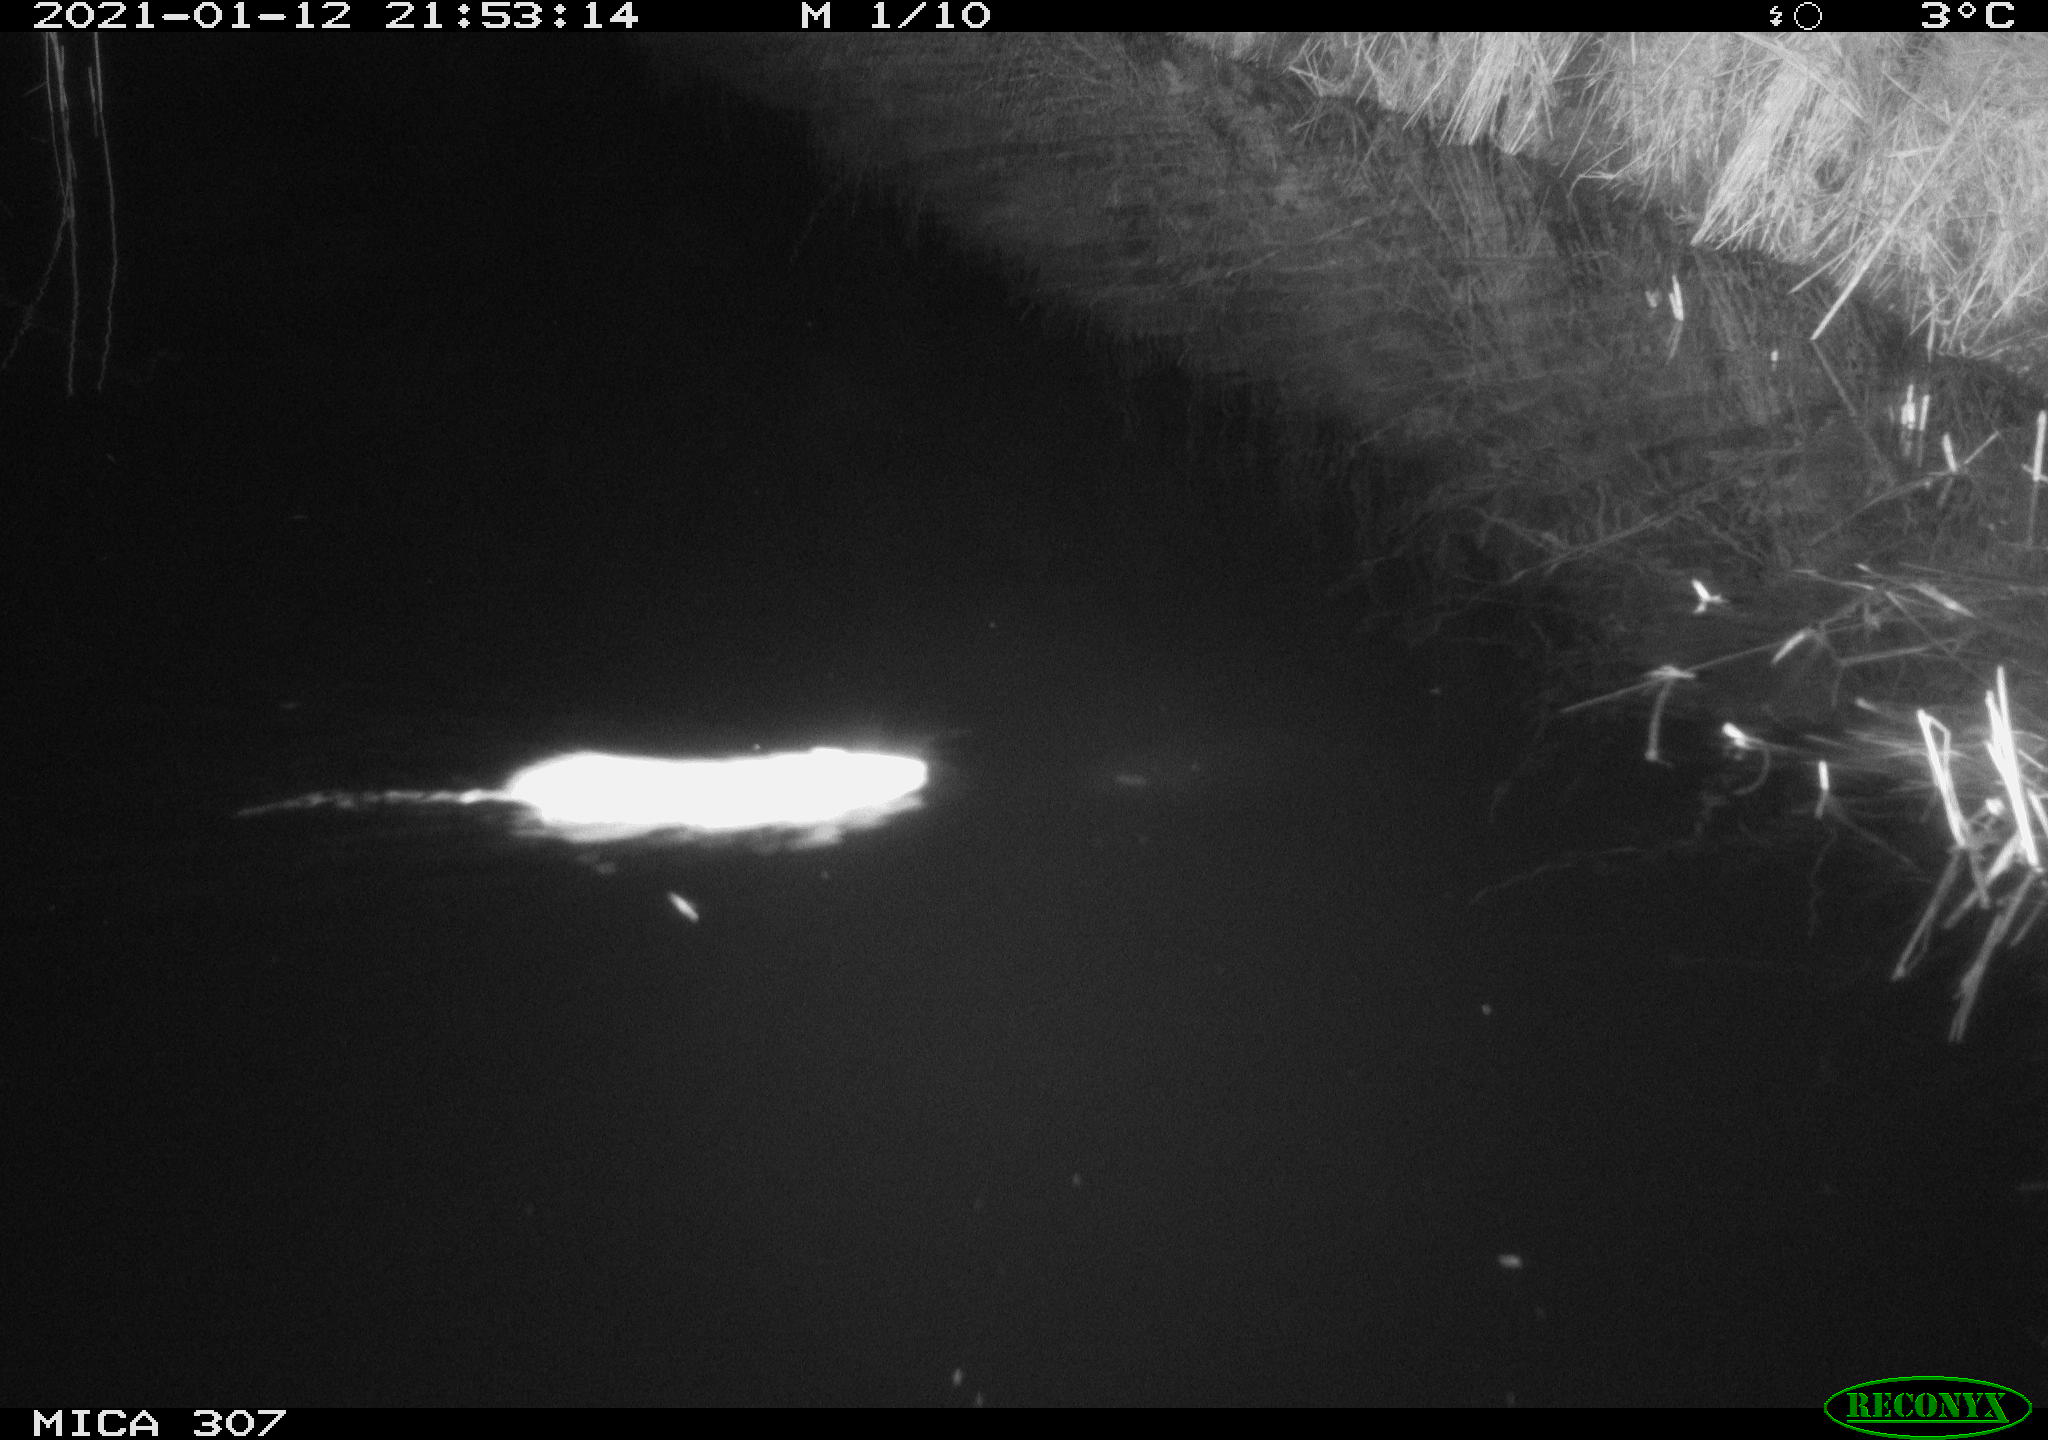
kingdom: Animalia
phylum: Chordata
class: Mammalia
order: Rodentia
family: Muridae
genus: Rattus
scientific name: Rattus norvegicus
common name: Brown rat
